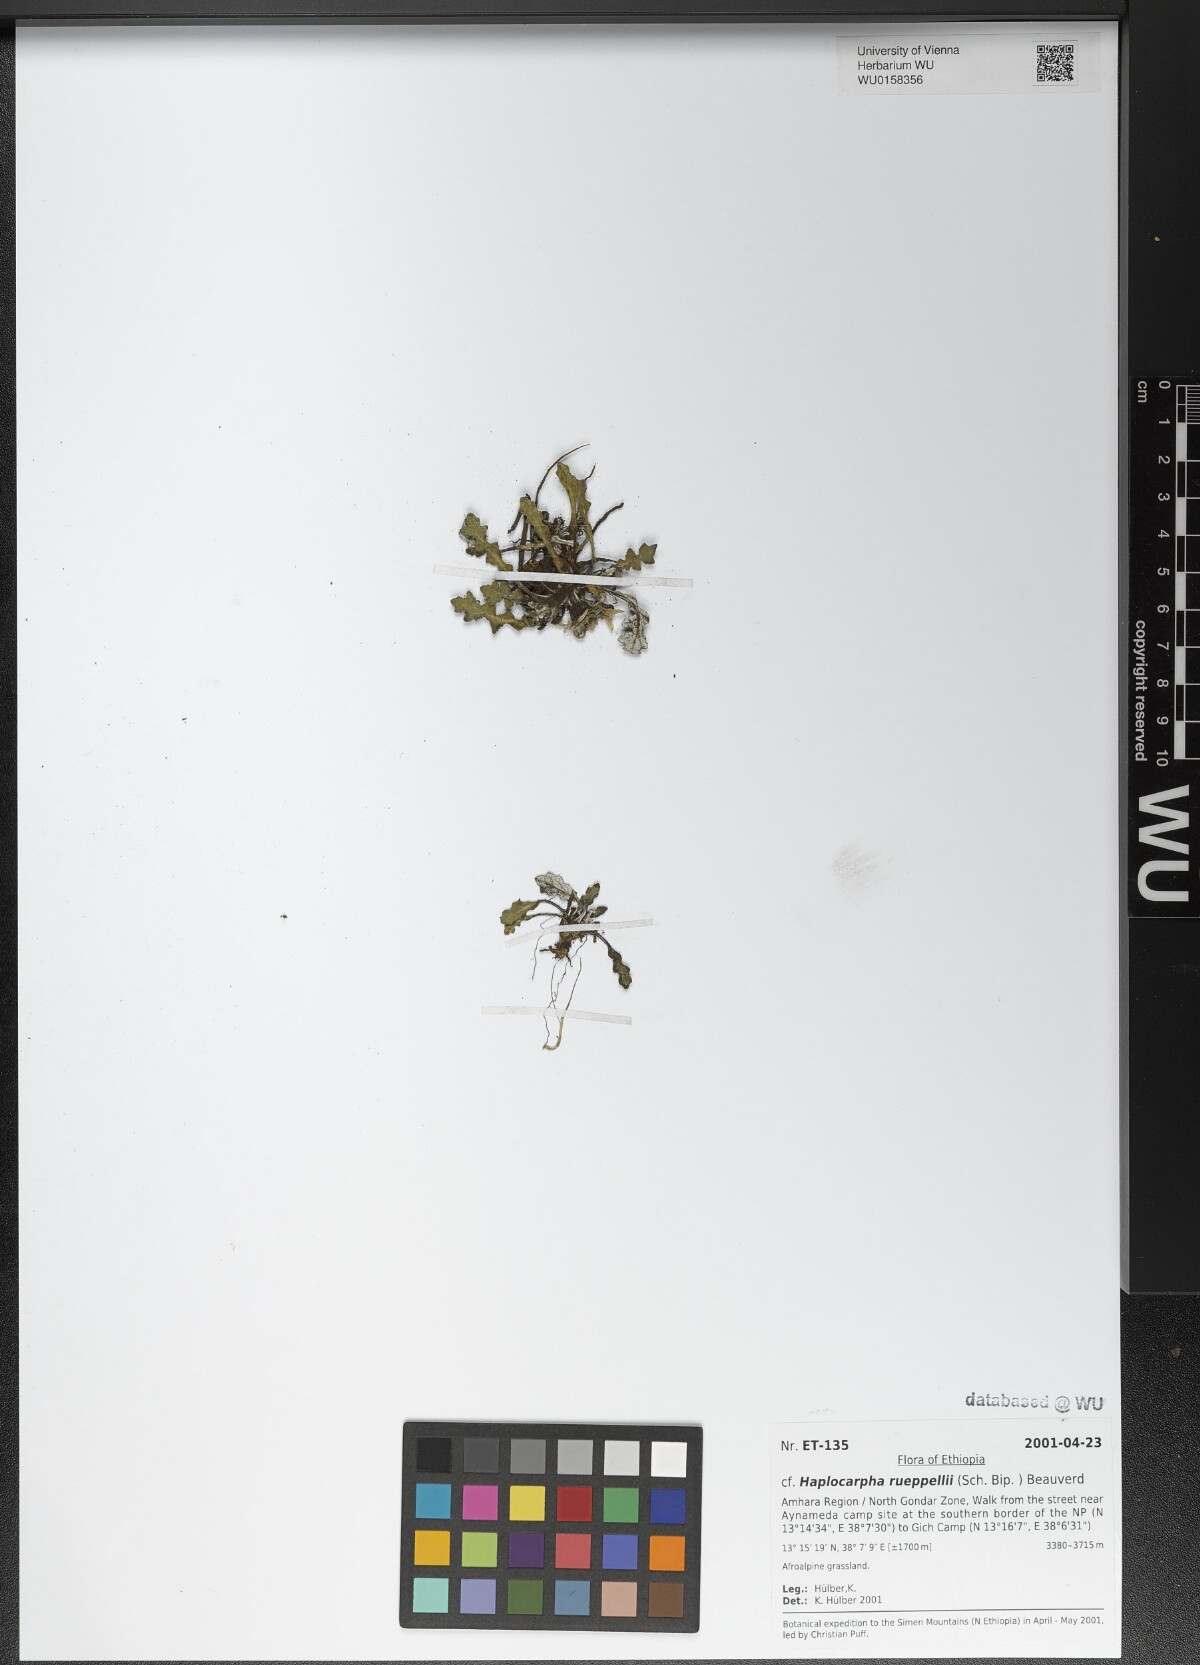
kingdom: Plantae
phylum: Tracheophyta
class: Magnoliopsida
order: Asterales
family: Asteraceae
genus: Haplocarpha
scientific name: Haplocarpha rueppelii
